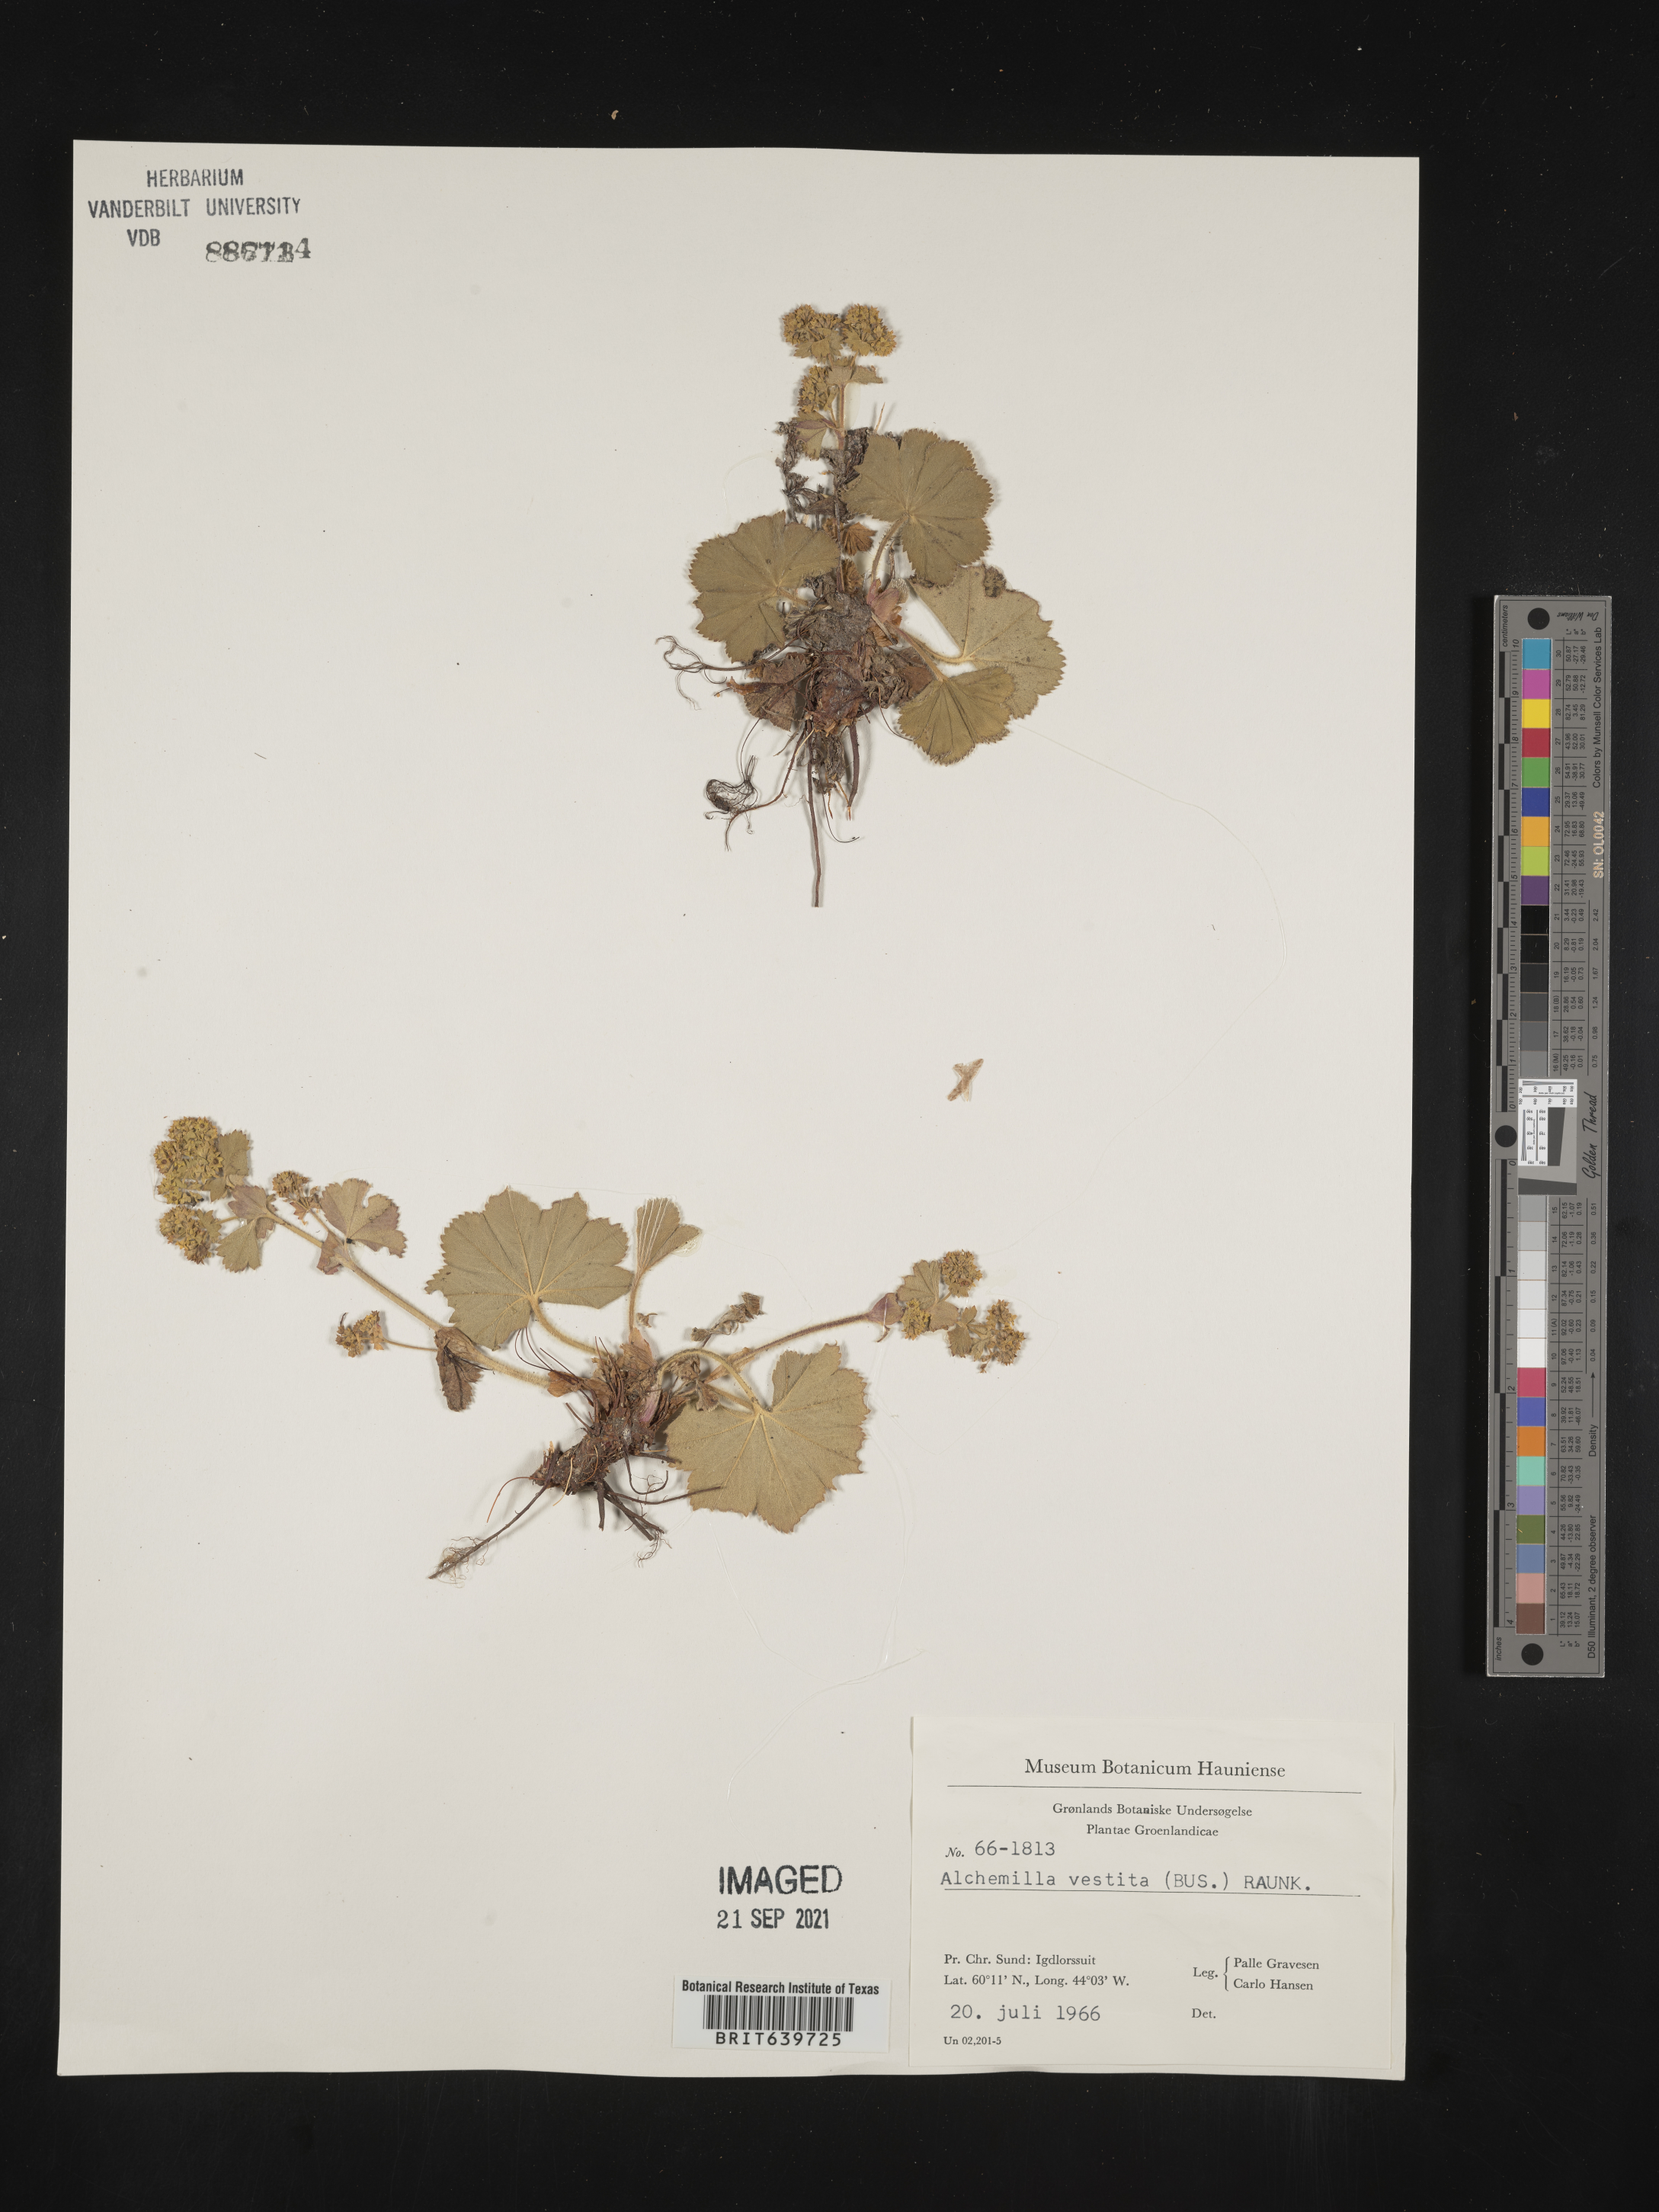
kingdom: Plantae
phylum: Tracheophyta
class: Magnoliopsida
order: Rosales
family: Rosaceae
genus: Alchemilla
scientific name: Alchemilla
